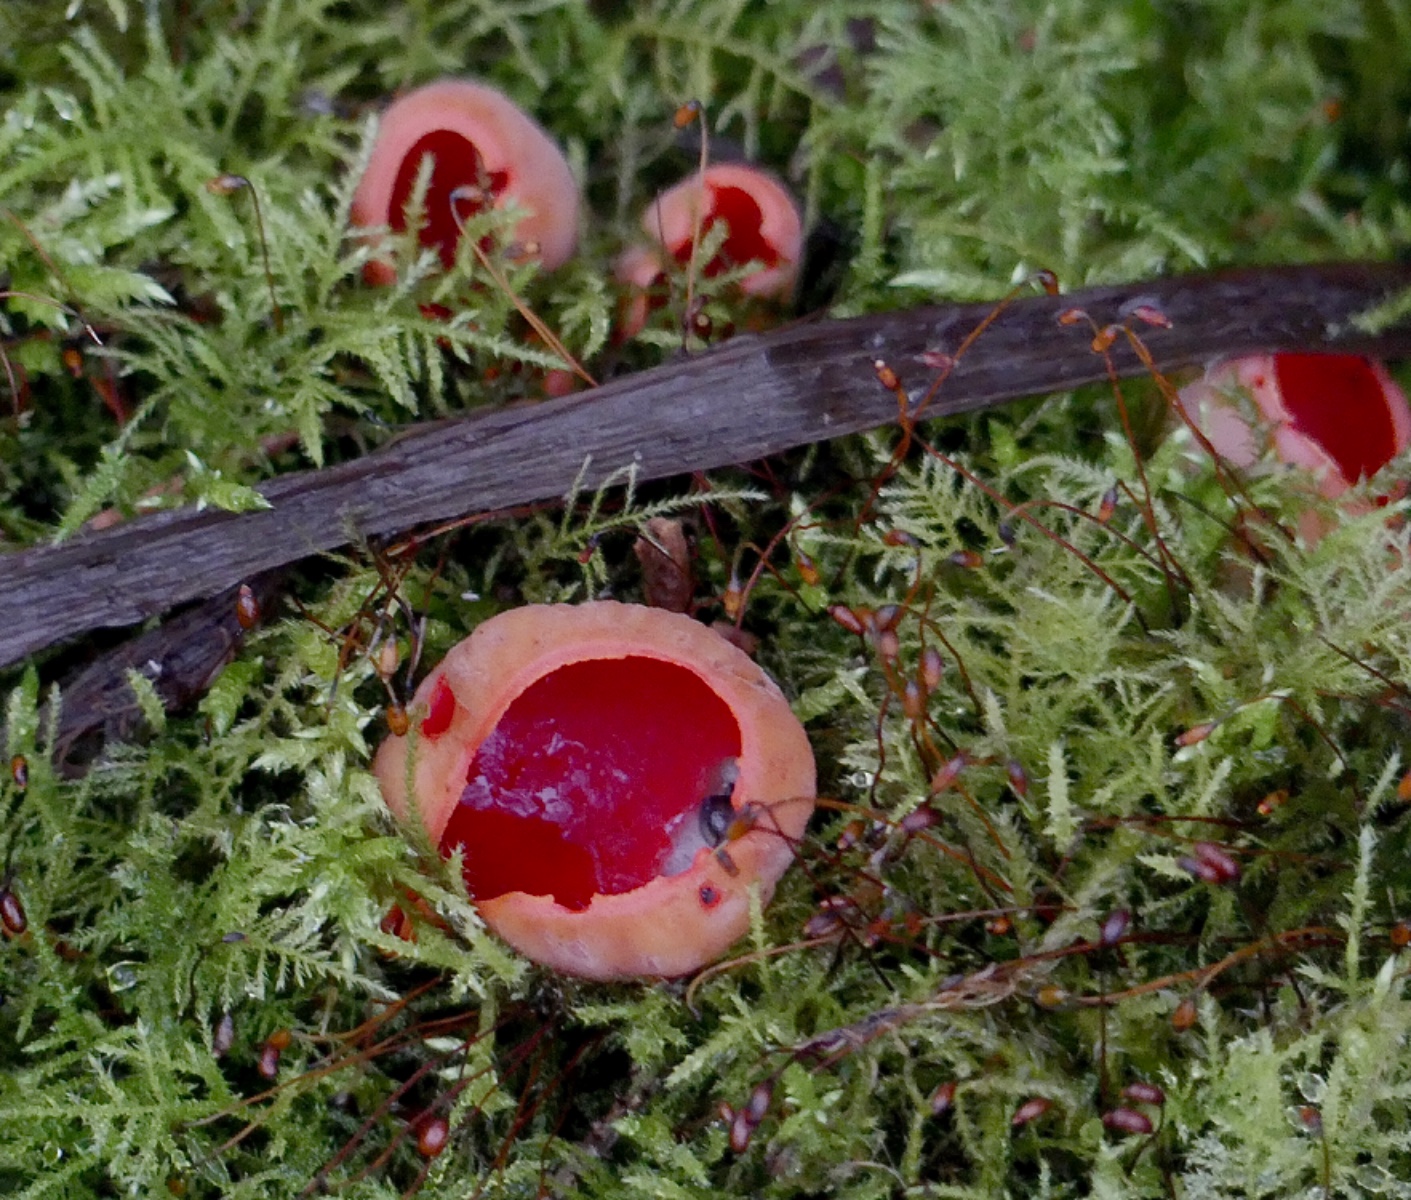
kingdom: Fungi
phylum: Ascomycota
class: Pezizomycetes
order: Pezizales
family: Sarcoscyphaceae
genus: Sarcoscypha
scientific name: Sarcoscypha austriaca
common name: krølhåret pragtbæger
